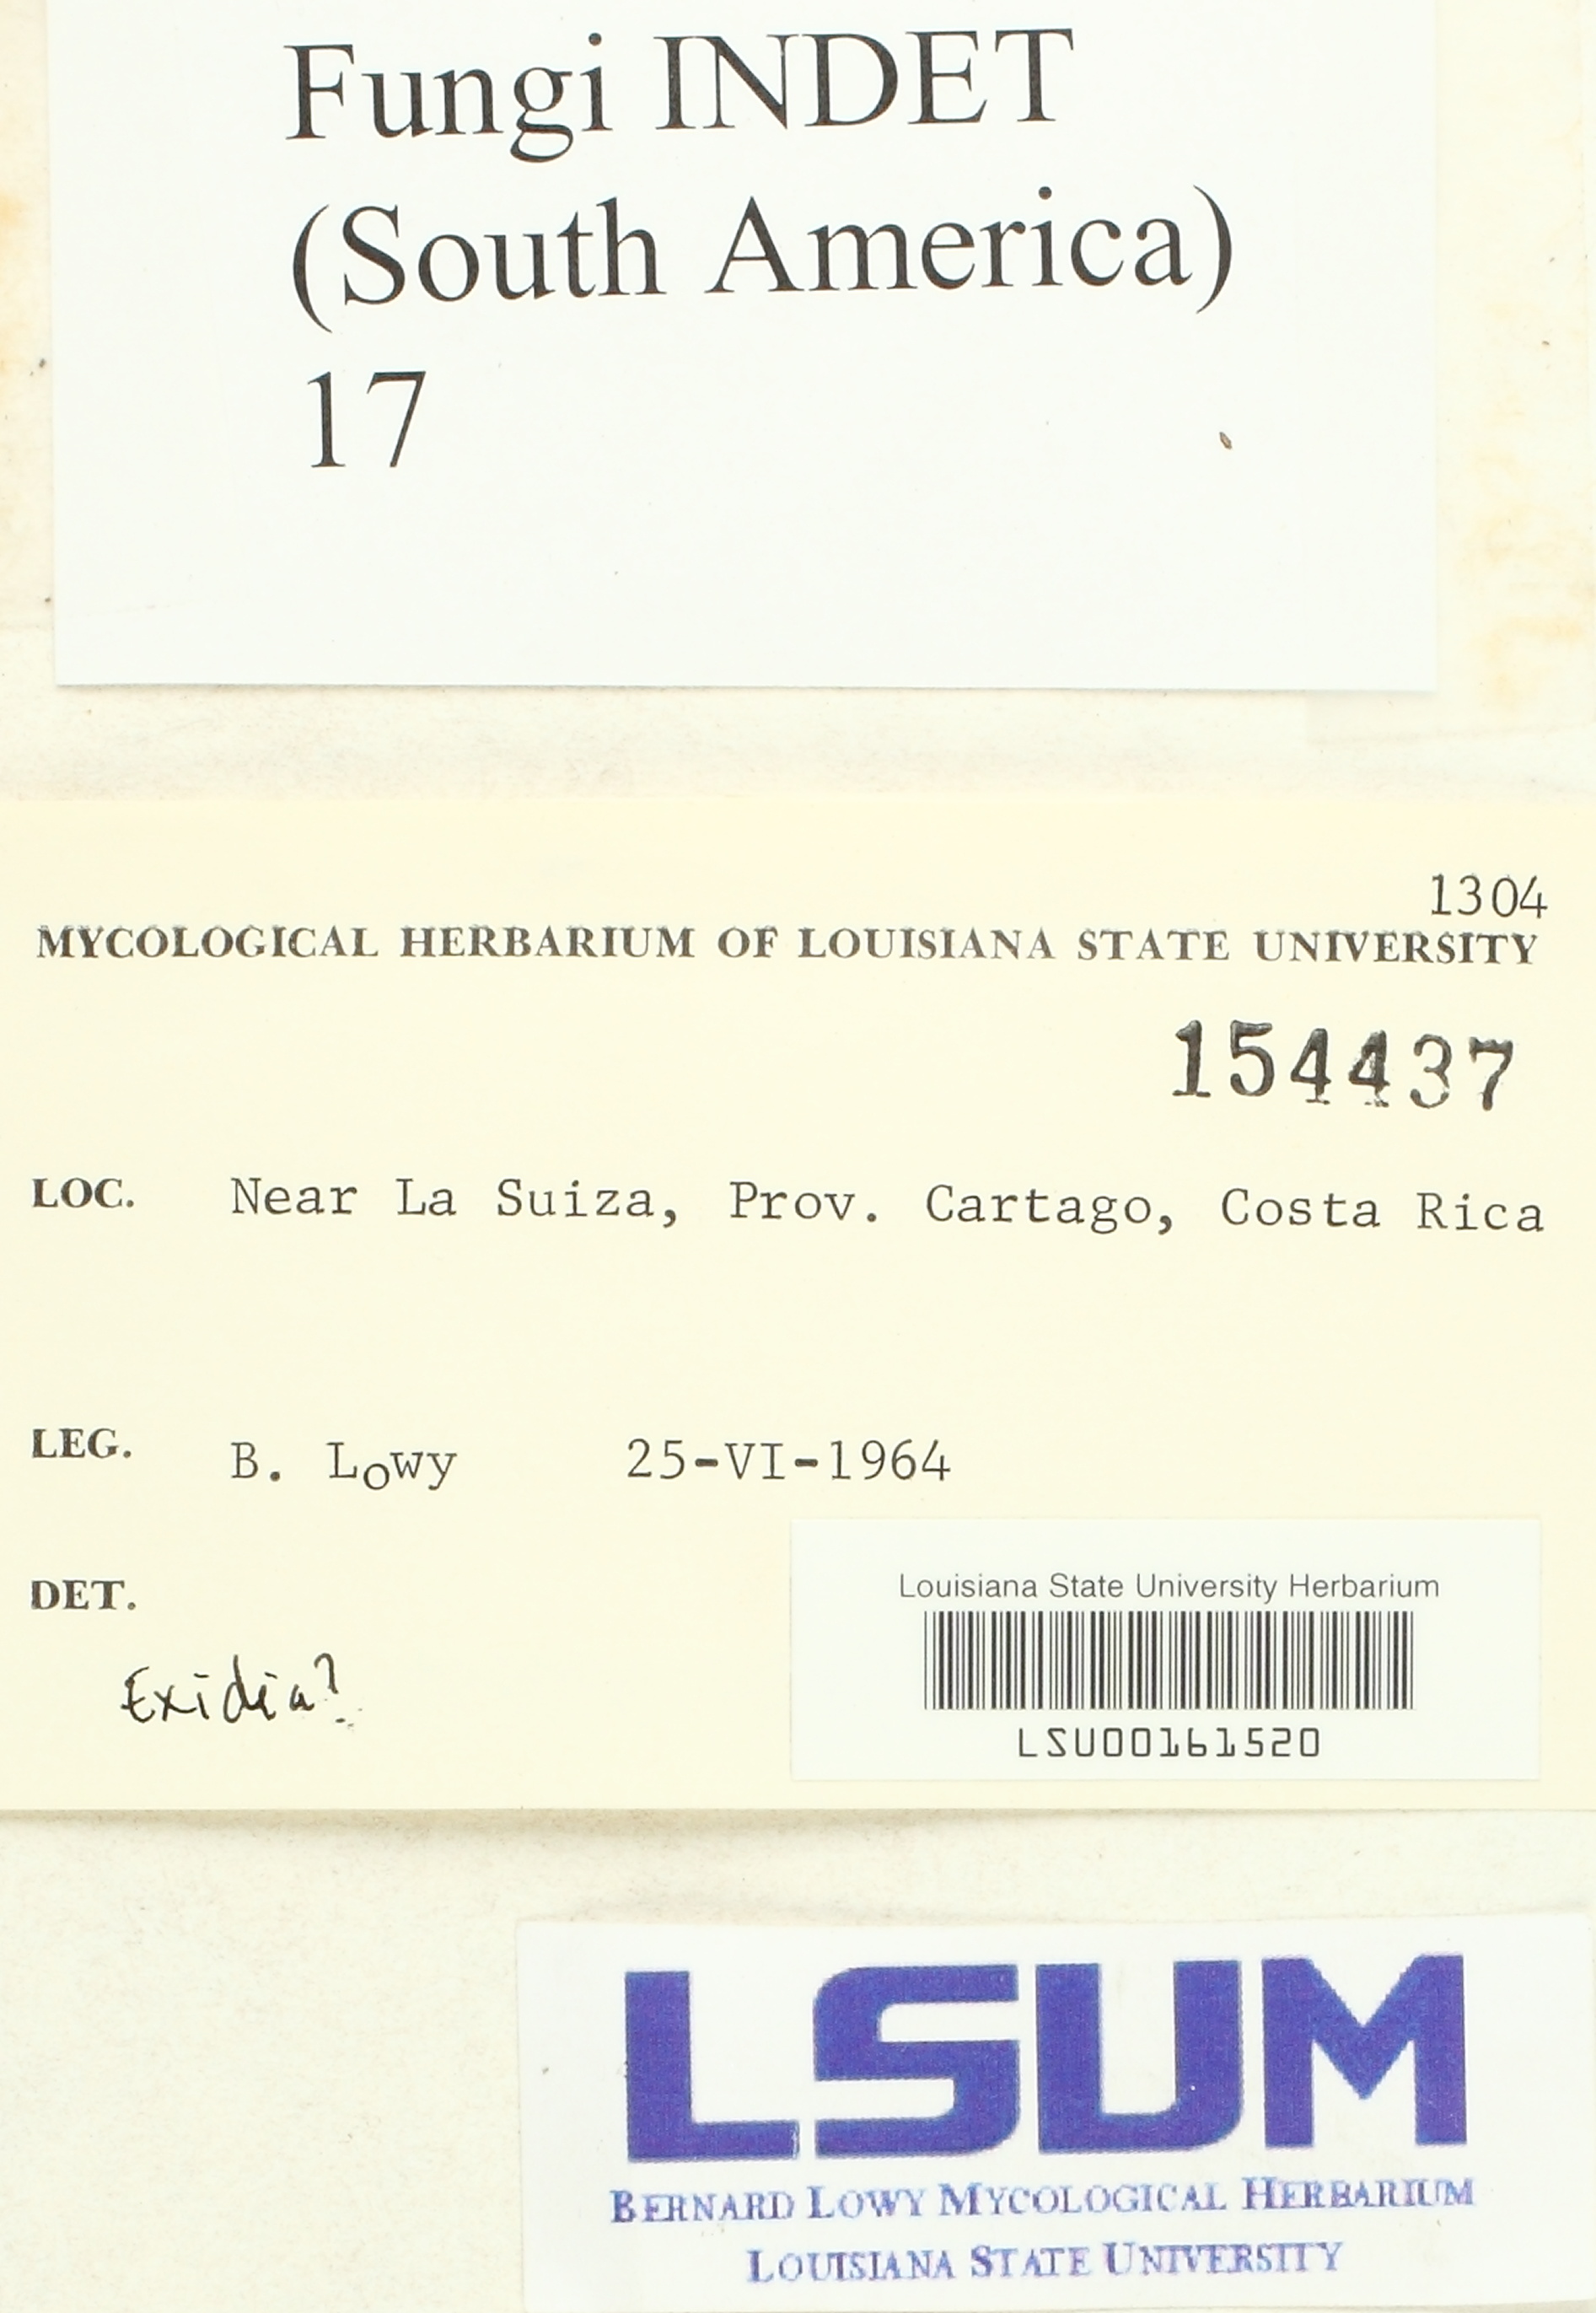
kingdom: Fungi
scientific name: Fungi
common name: Fungi
